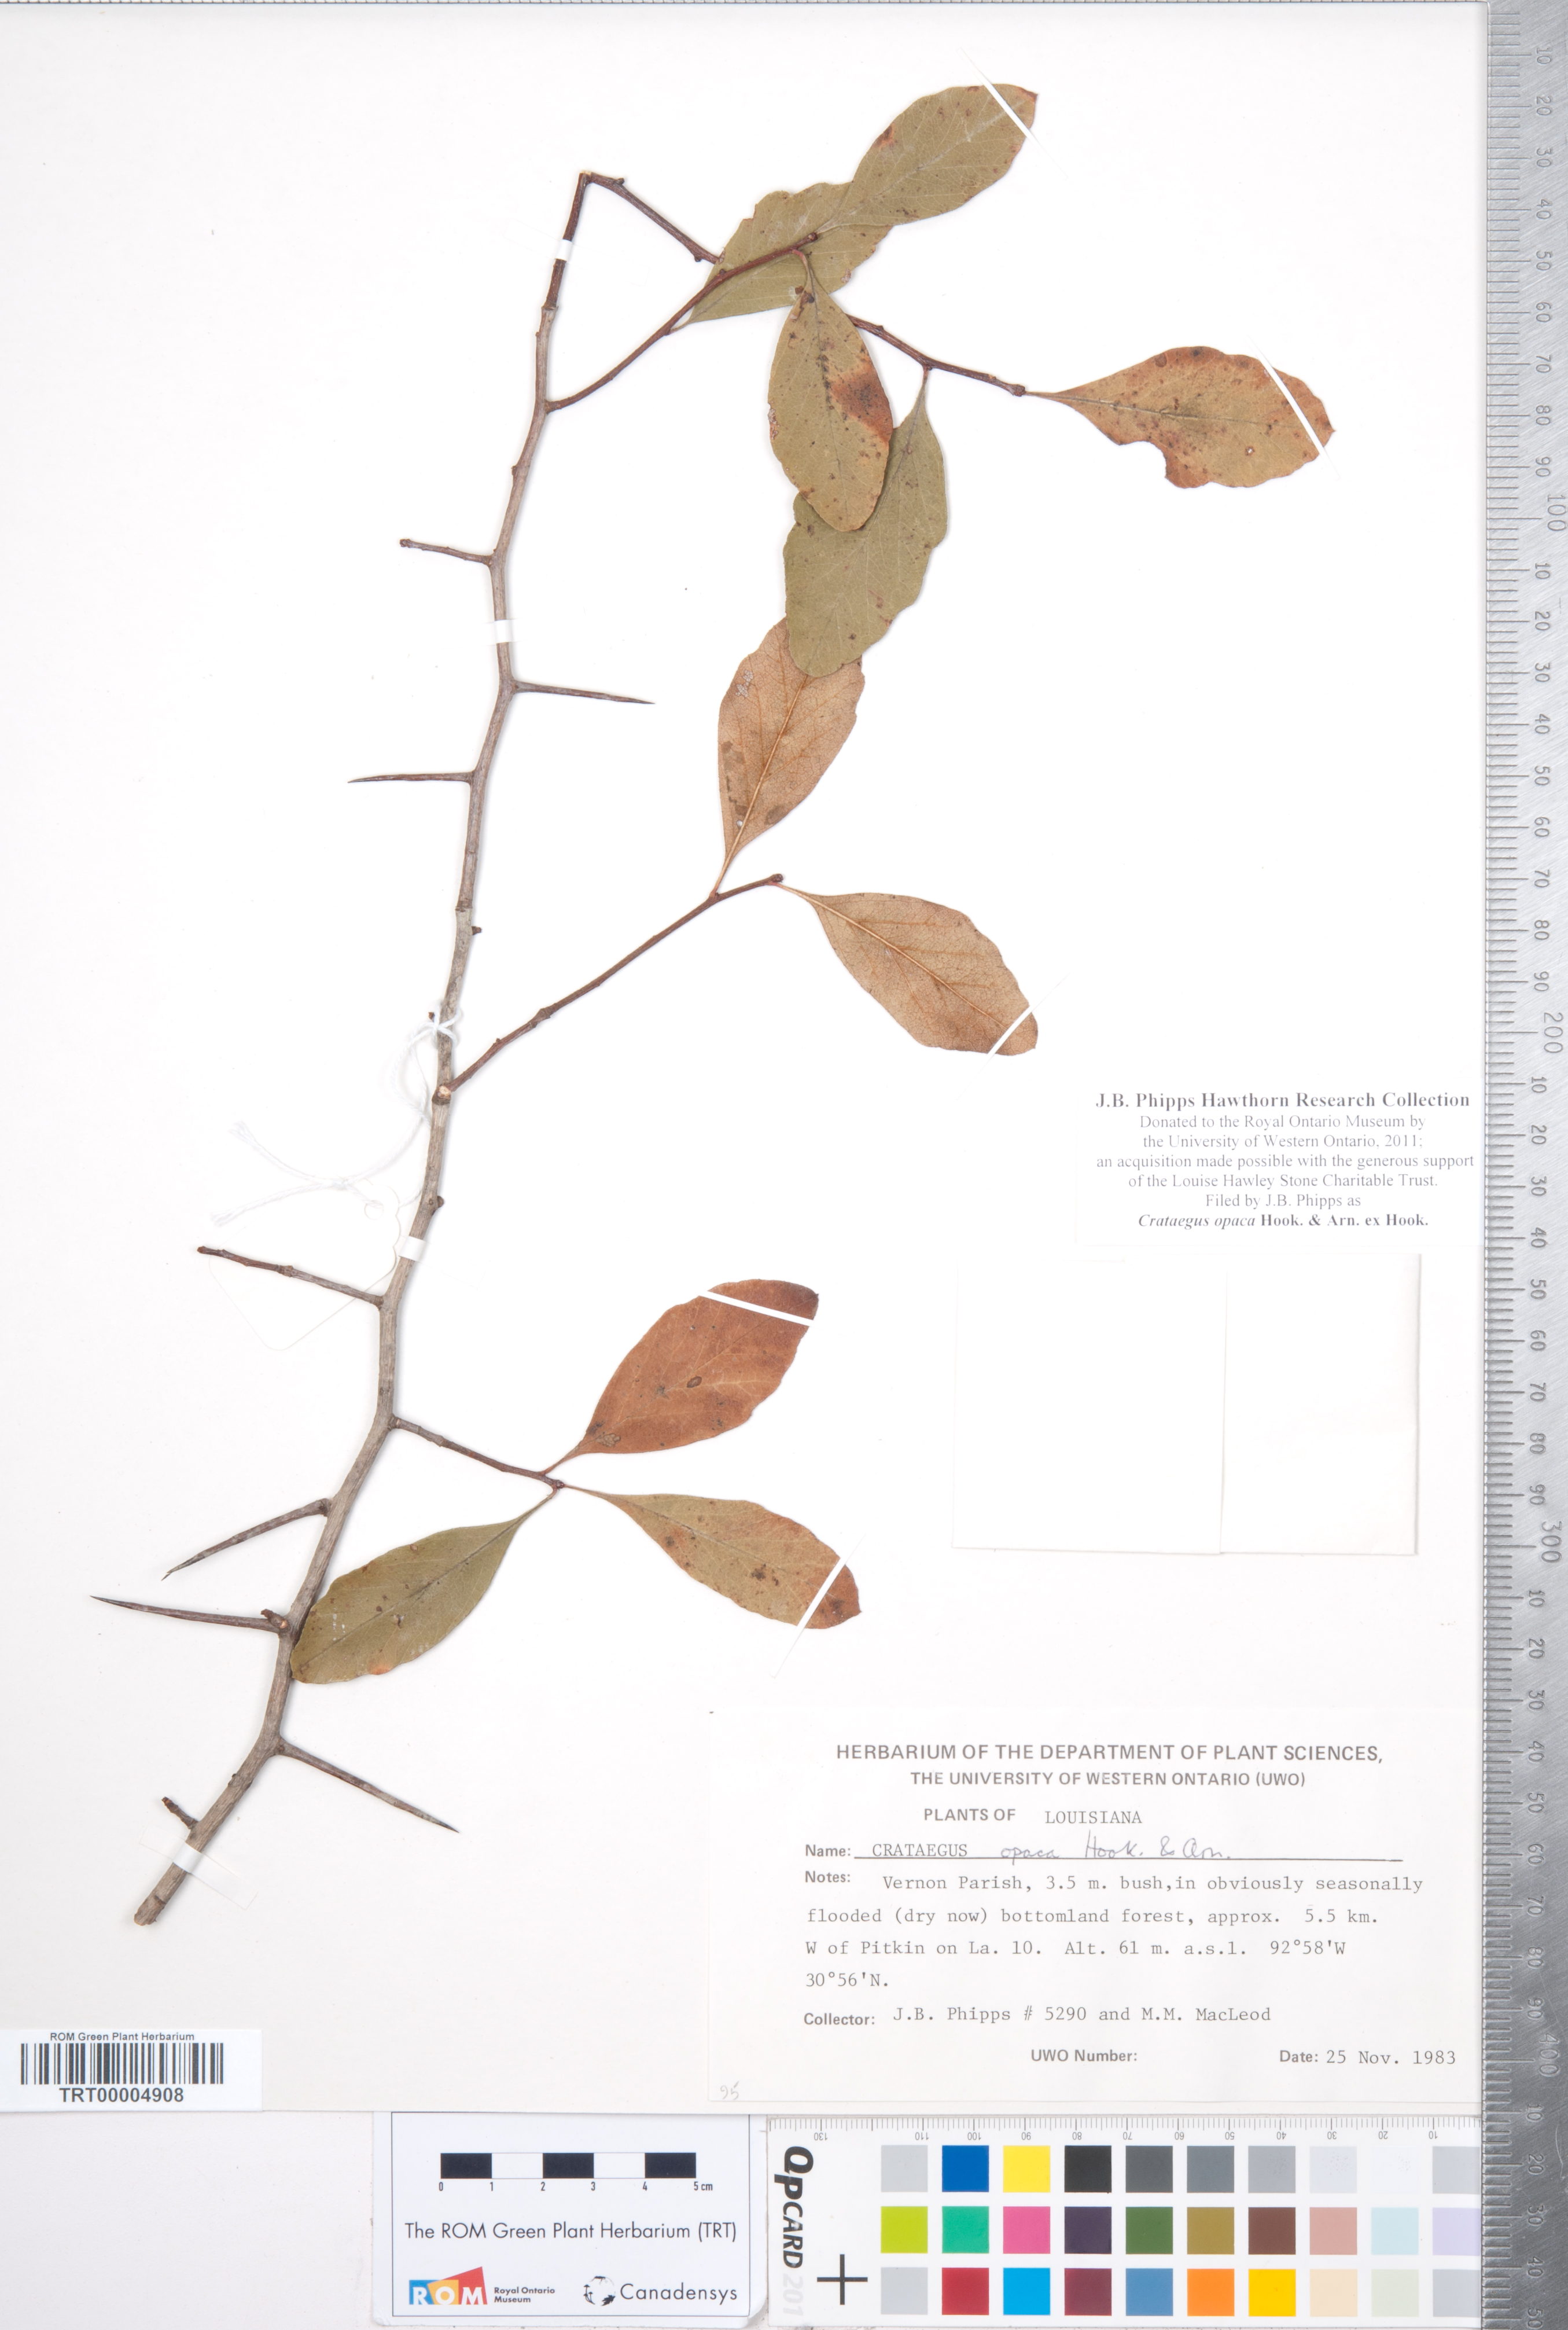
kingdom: Plantae
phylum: Tracheophyta
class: Magnoliopsida
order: Rosales
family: Rosaceae
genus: Crataegus
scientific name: Crataegus opaca
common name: Apple haw
